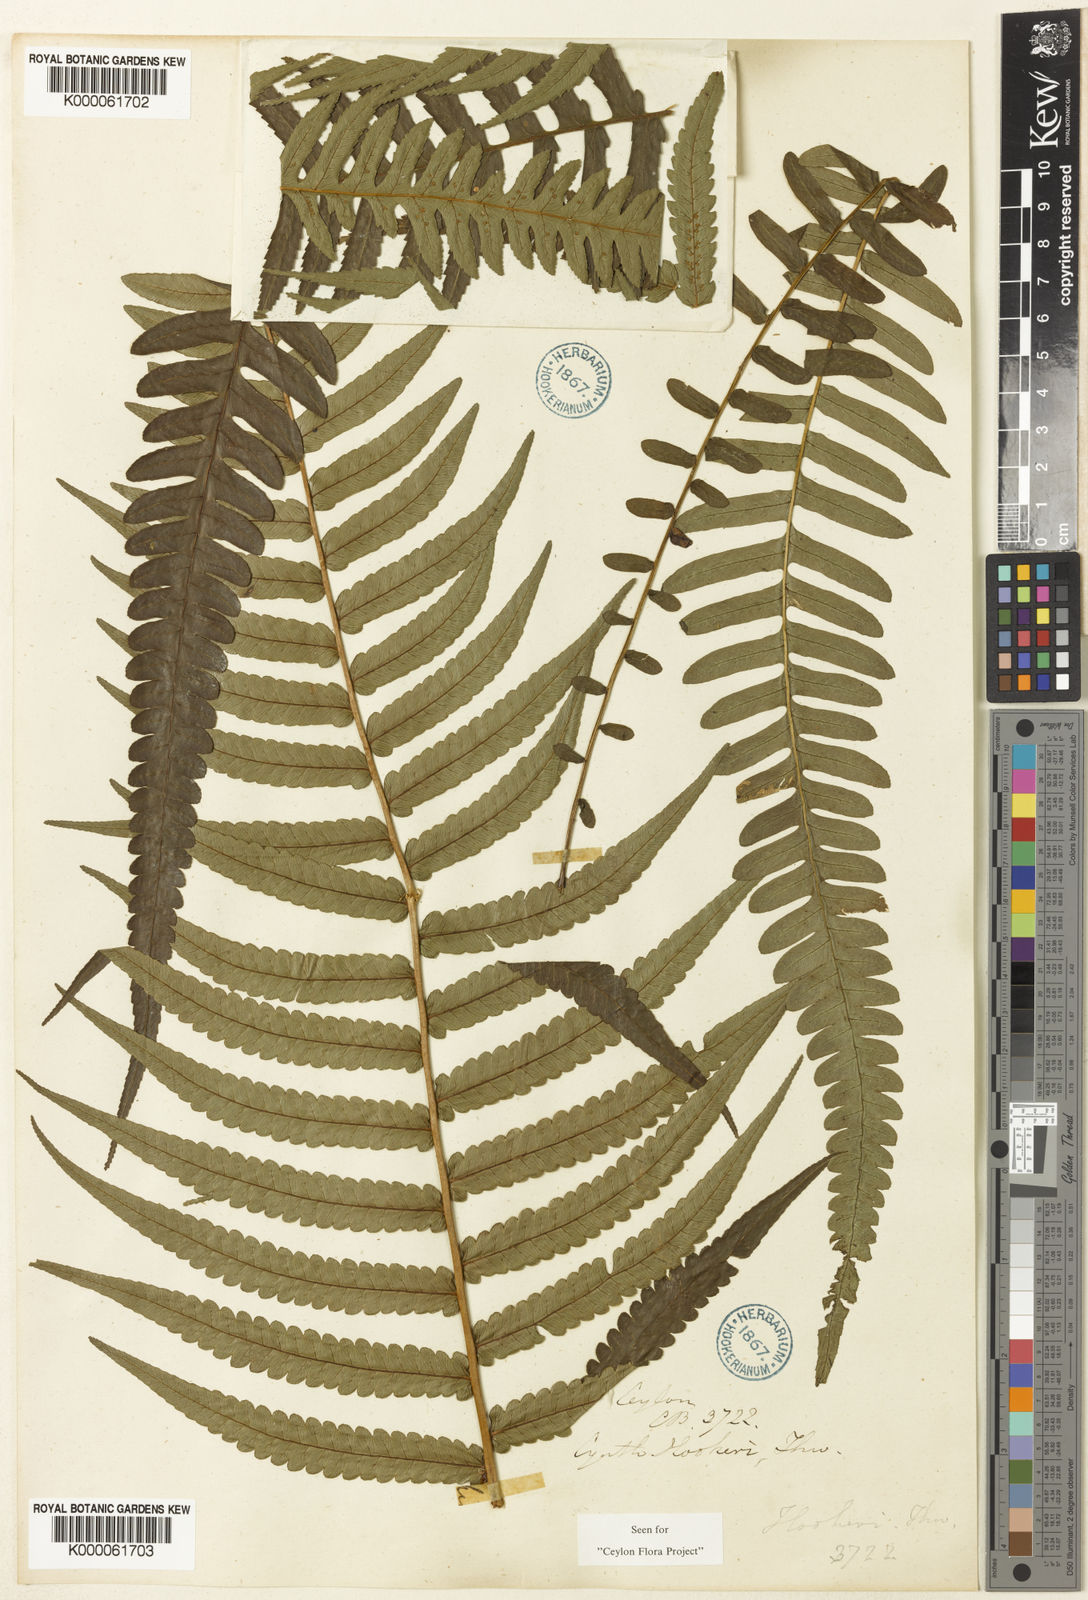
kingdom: Plantae
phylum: Tracheophyta
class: Polypodiopsida
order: Cyatheales
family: Cyatheaceae
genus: Alsophila
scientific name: Alsophila hookeri
